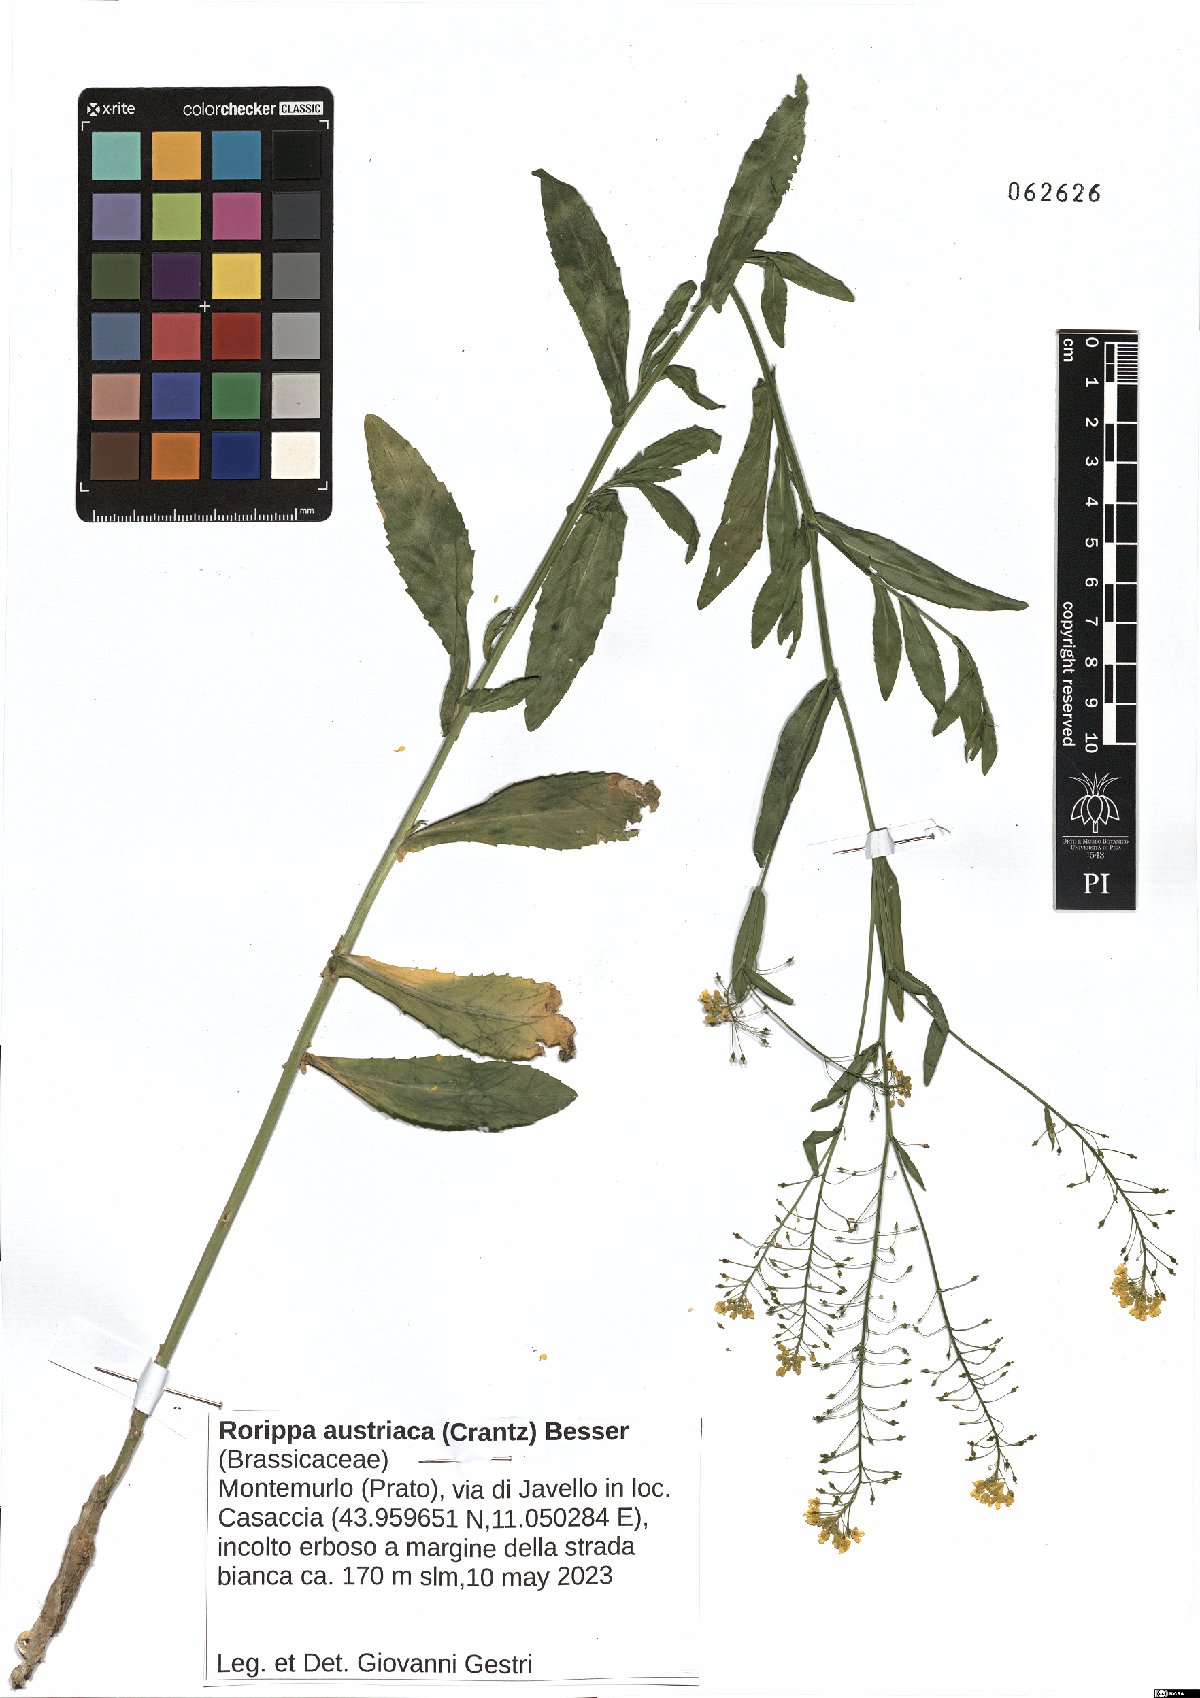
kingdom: Plantae
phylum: Tracheophyta
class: Magnoliopsida
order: Brassicales
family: Brassicaceae
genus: Rorippa
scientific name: Rorippa austriaca
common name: Austrian yellow-cress
